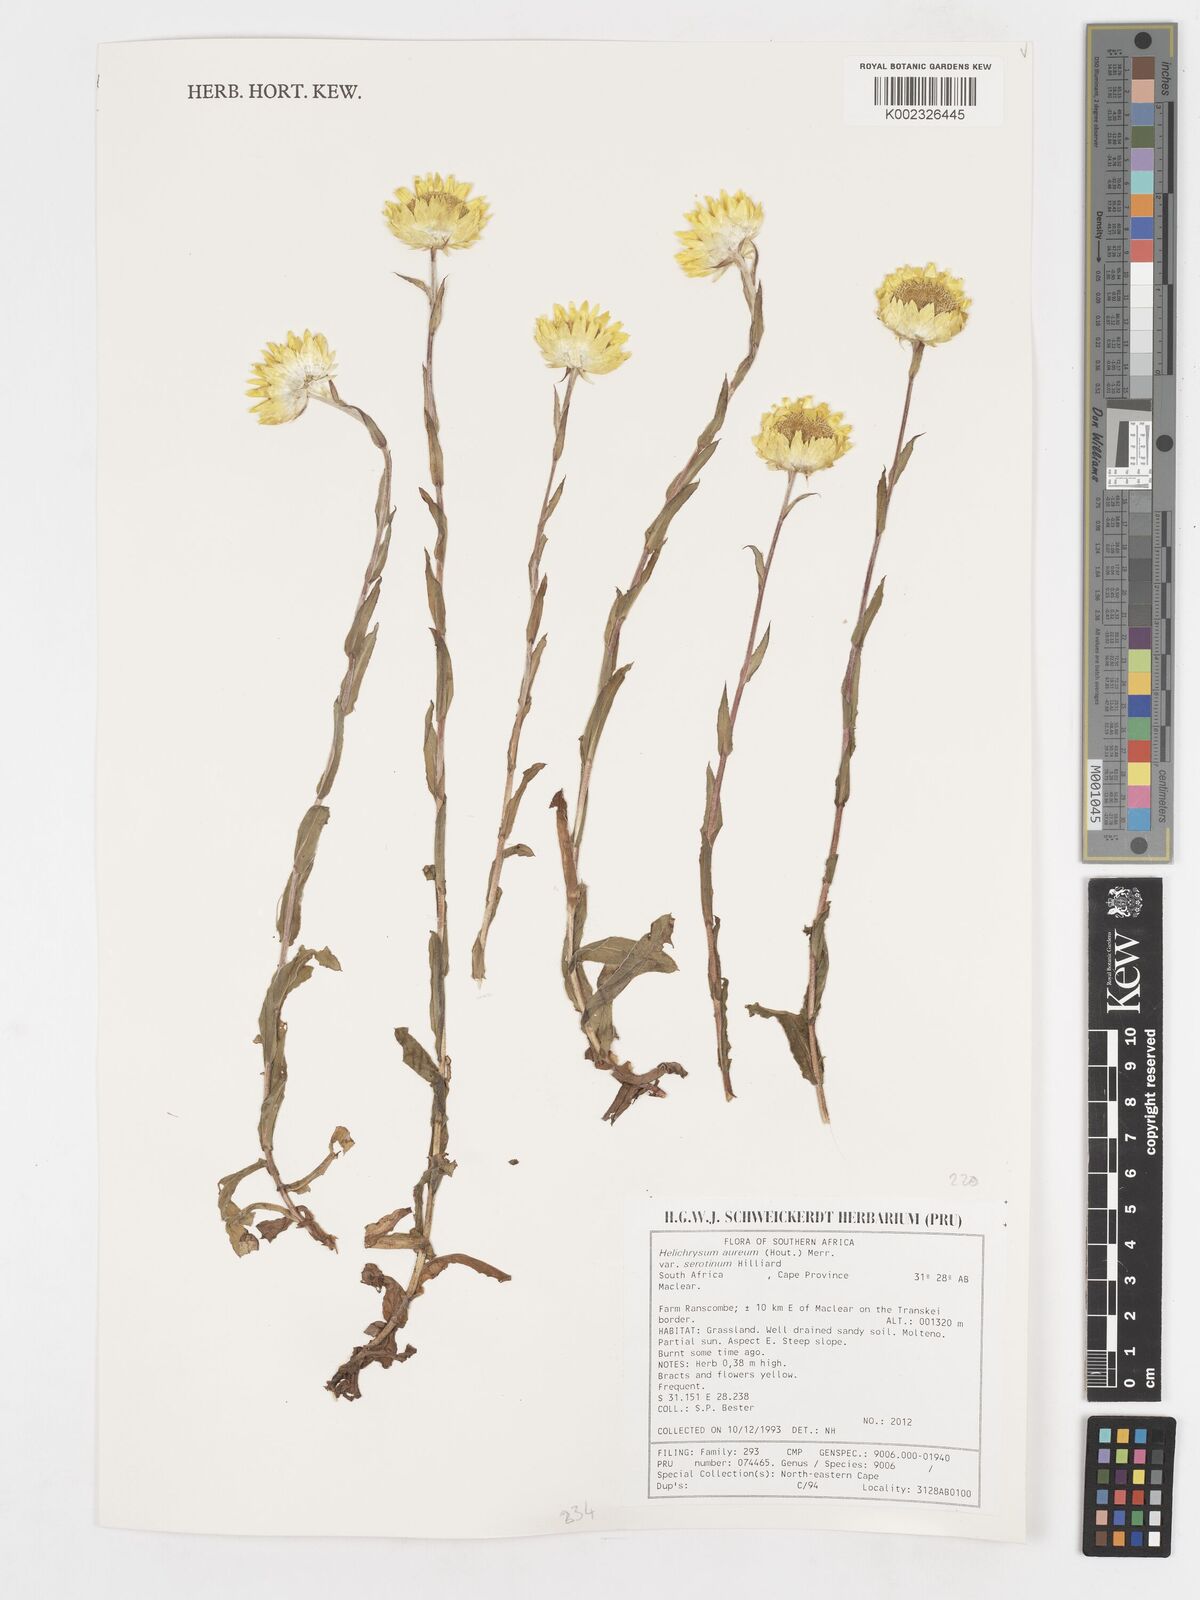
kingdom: Plantae
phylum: Tracheophyta
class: Magnoliopsida
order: Asterales
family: Asteraceae
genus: Helichrysum
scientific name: Helichrysum aureolum
